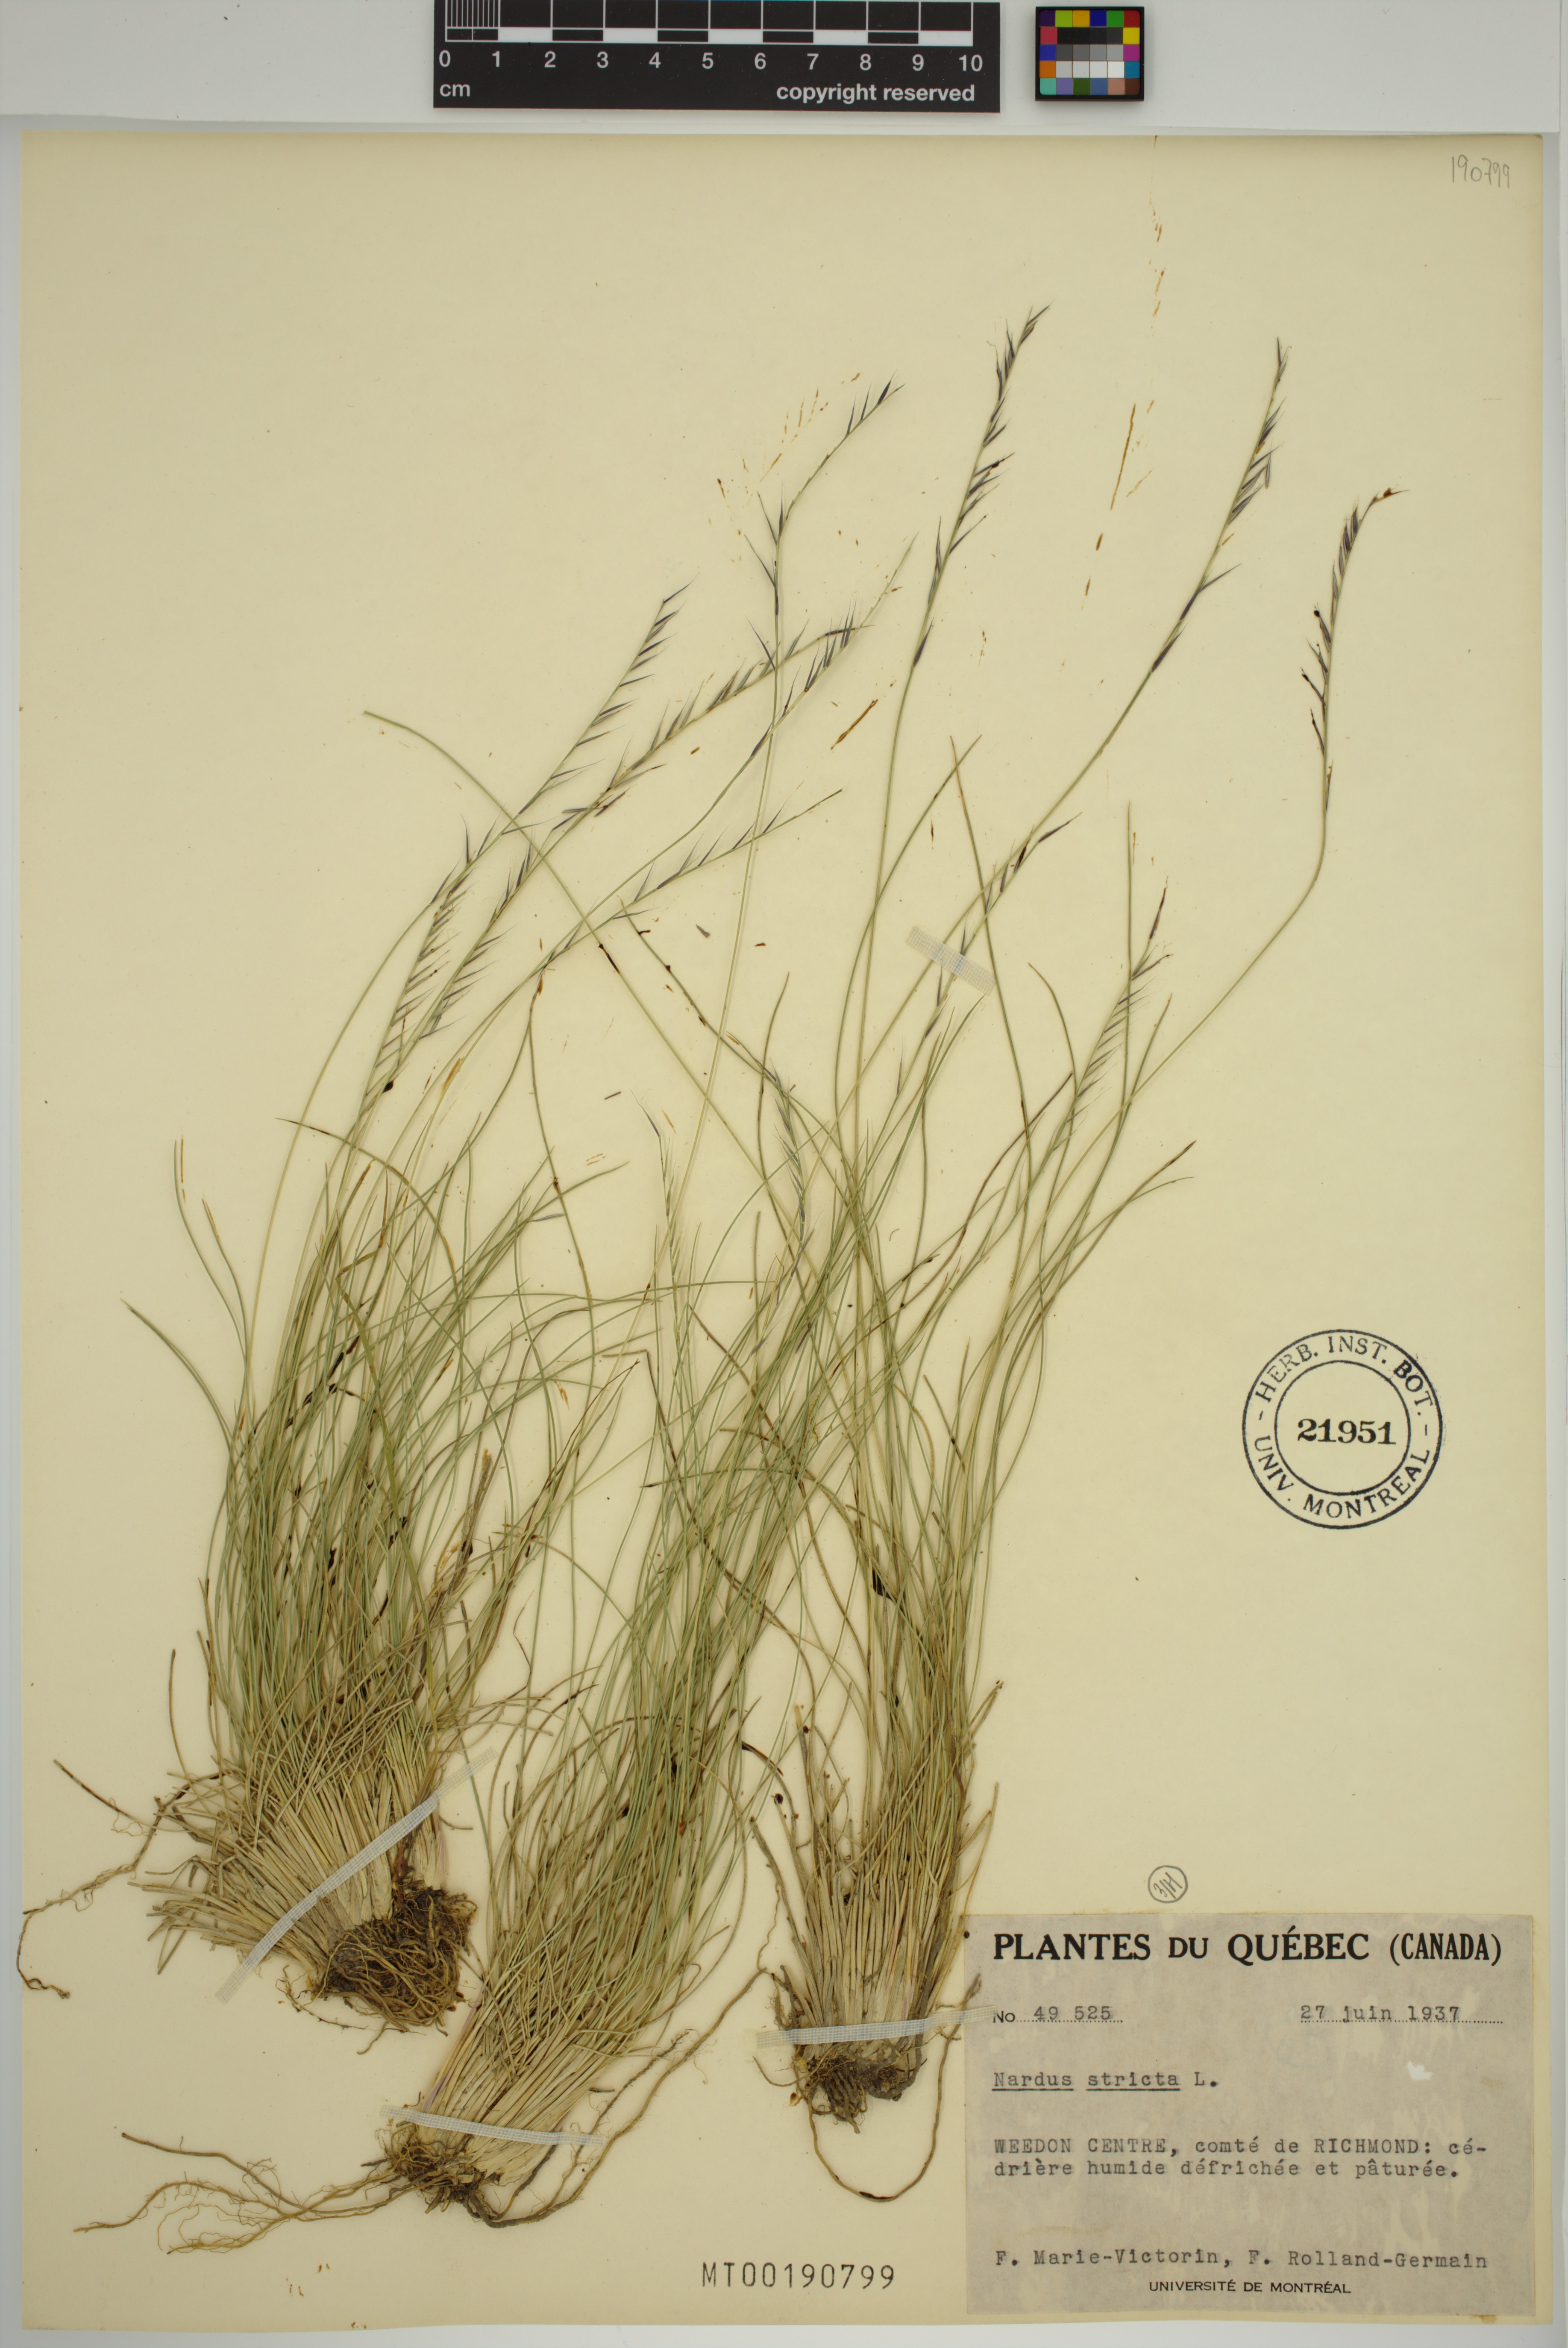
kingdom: Plantae
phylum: Tracheophyta
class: Liliopsida
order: Poales
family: Poaceae
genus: Nardus
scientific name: Nardus stricta
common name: Mat-grass
